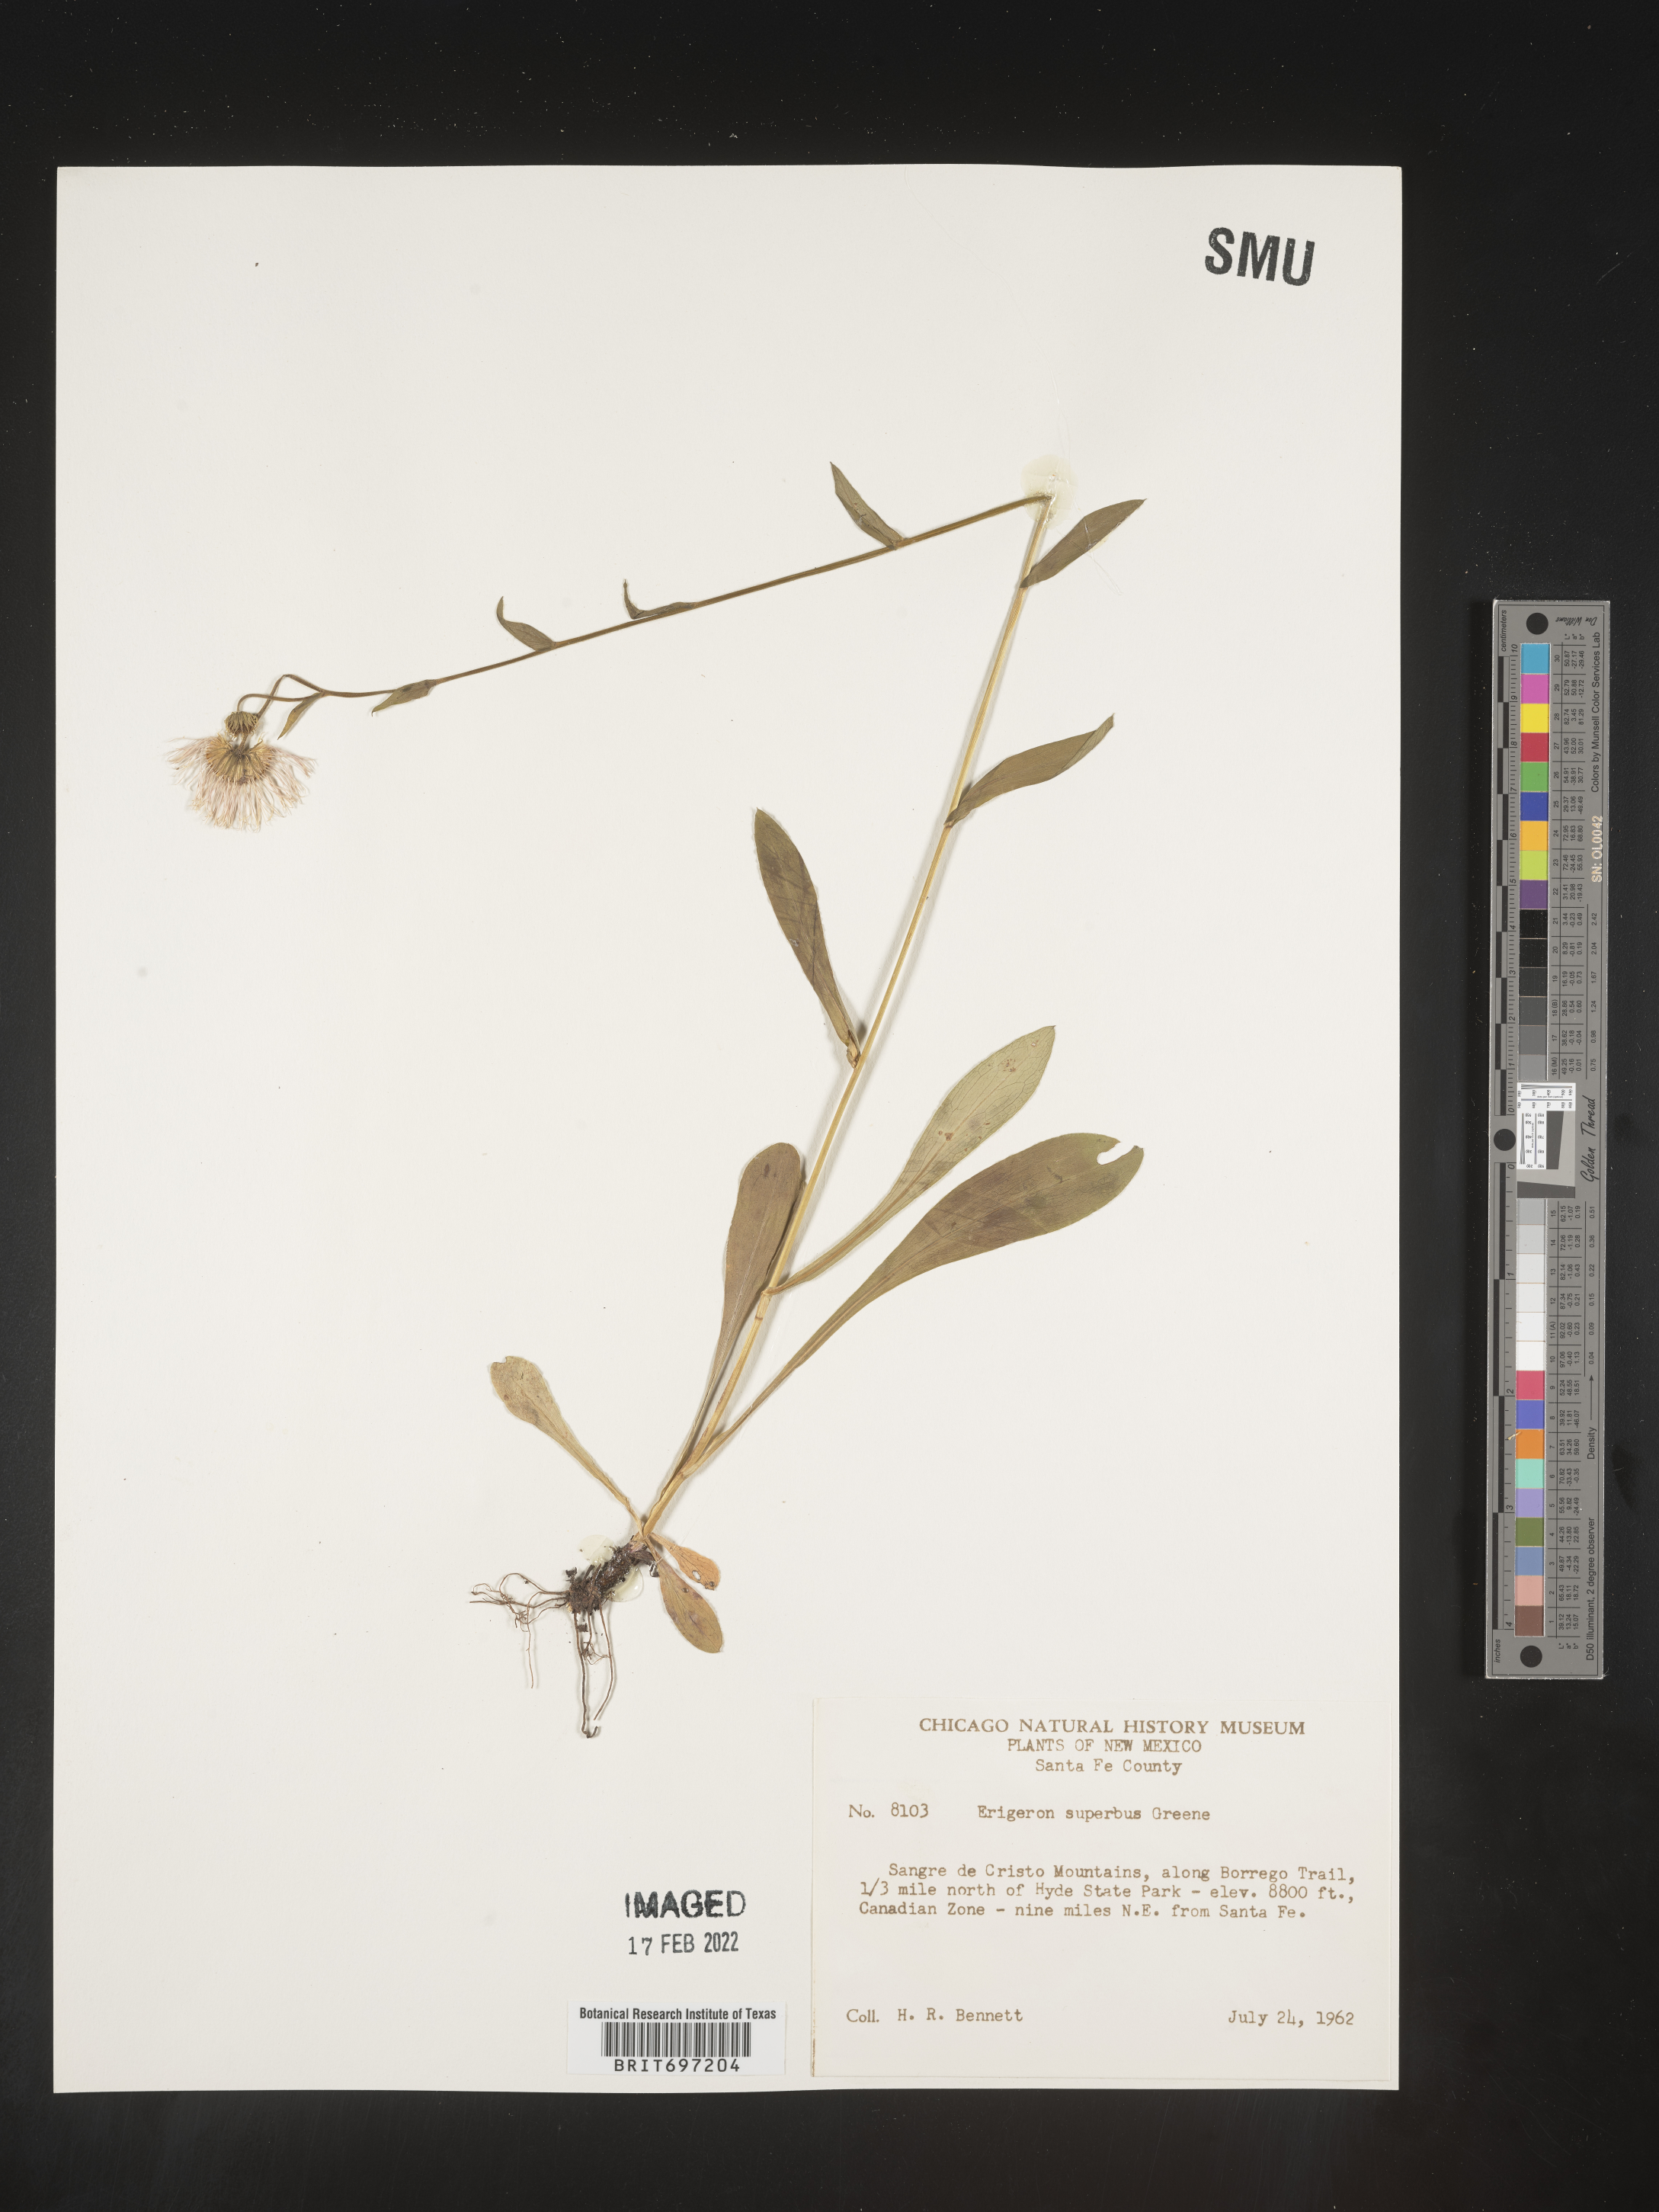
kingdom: Plantae
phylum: Tracheophyta
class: Magnoliopsida
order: Asterales
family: Asteraceae
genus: Erigeron
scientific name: Erigeron eximius
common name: Spruce-fir fleabane
